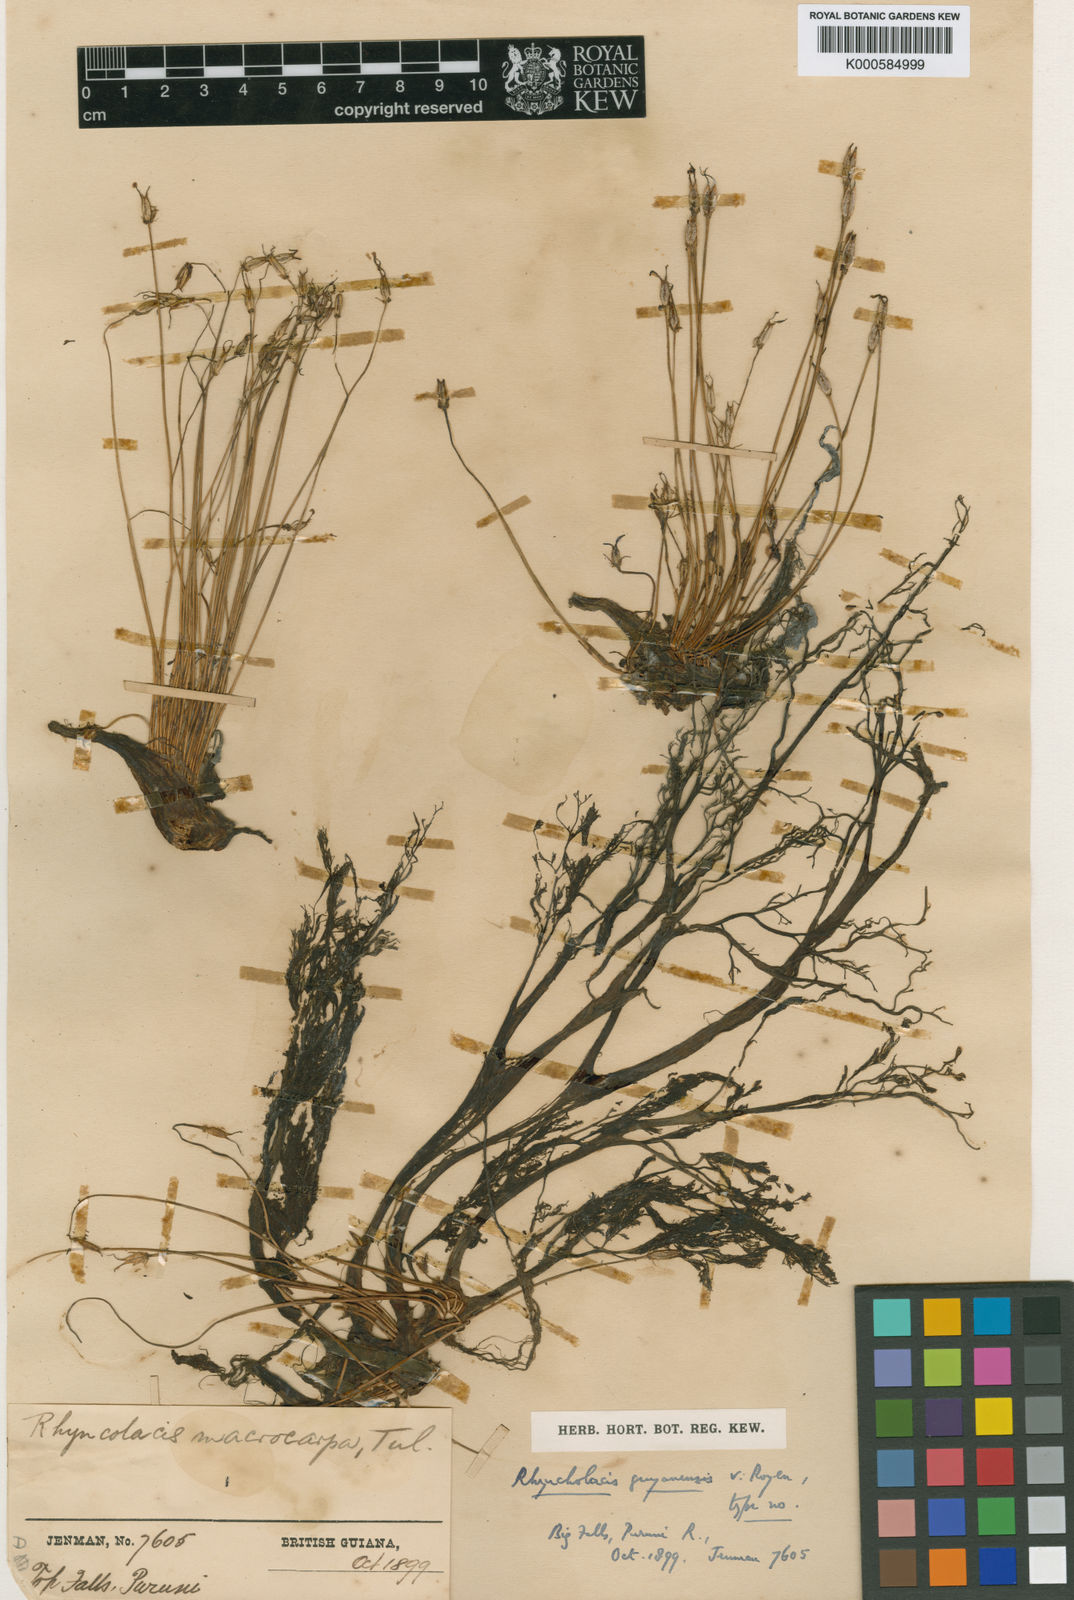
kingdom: Plantae
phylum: Tracheophyta
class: Magnoliopsida
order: Malpighiales
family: Podostemaceae
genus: Rhyncholacis
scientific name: Rhyncholacis guyanensis
